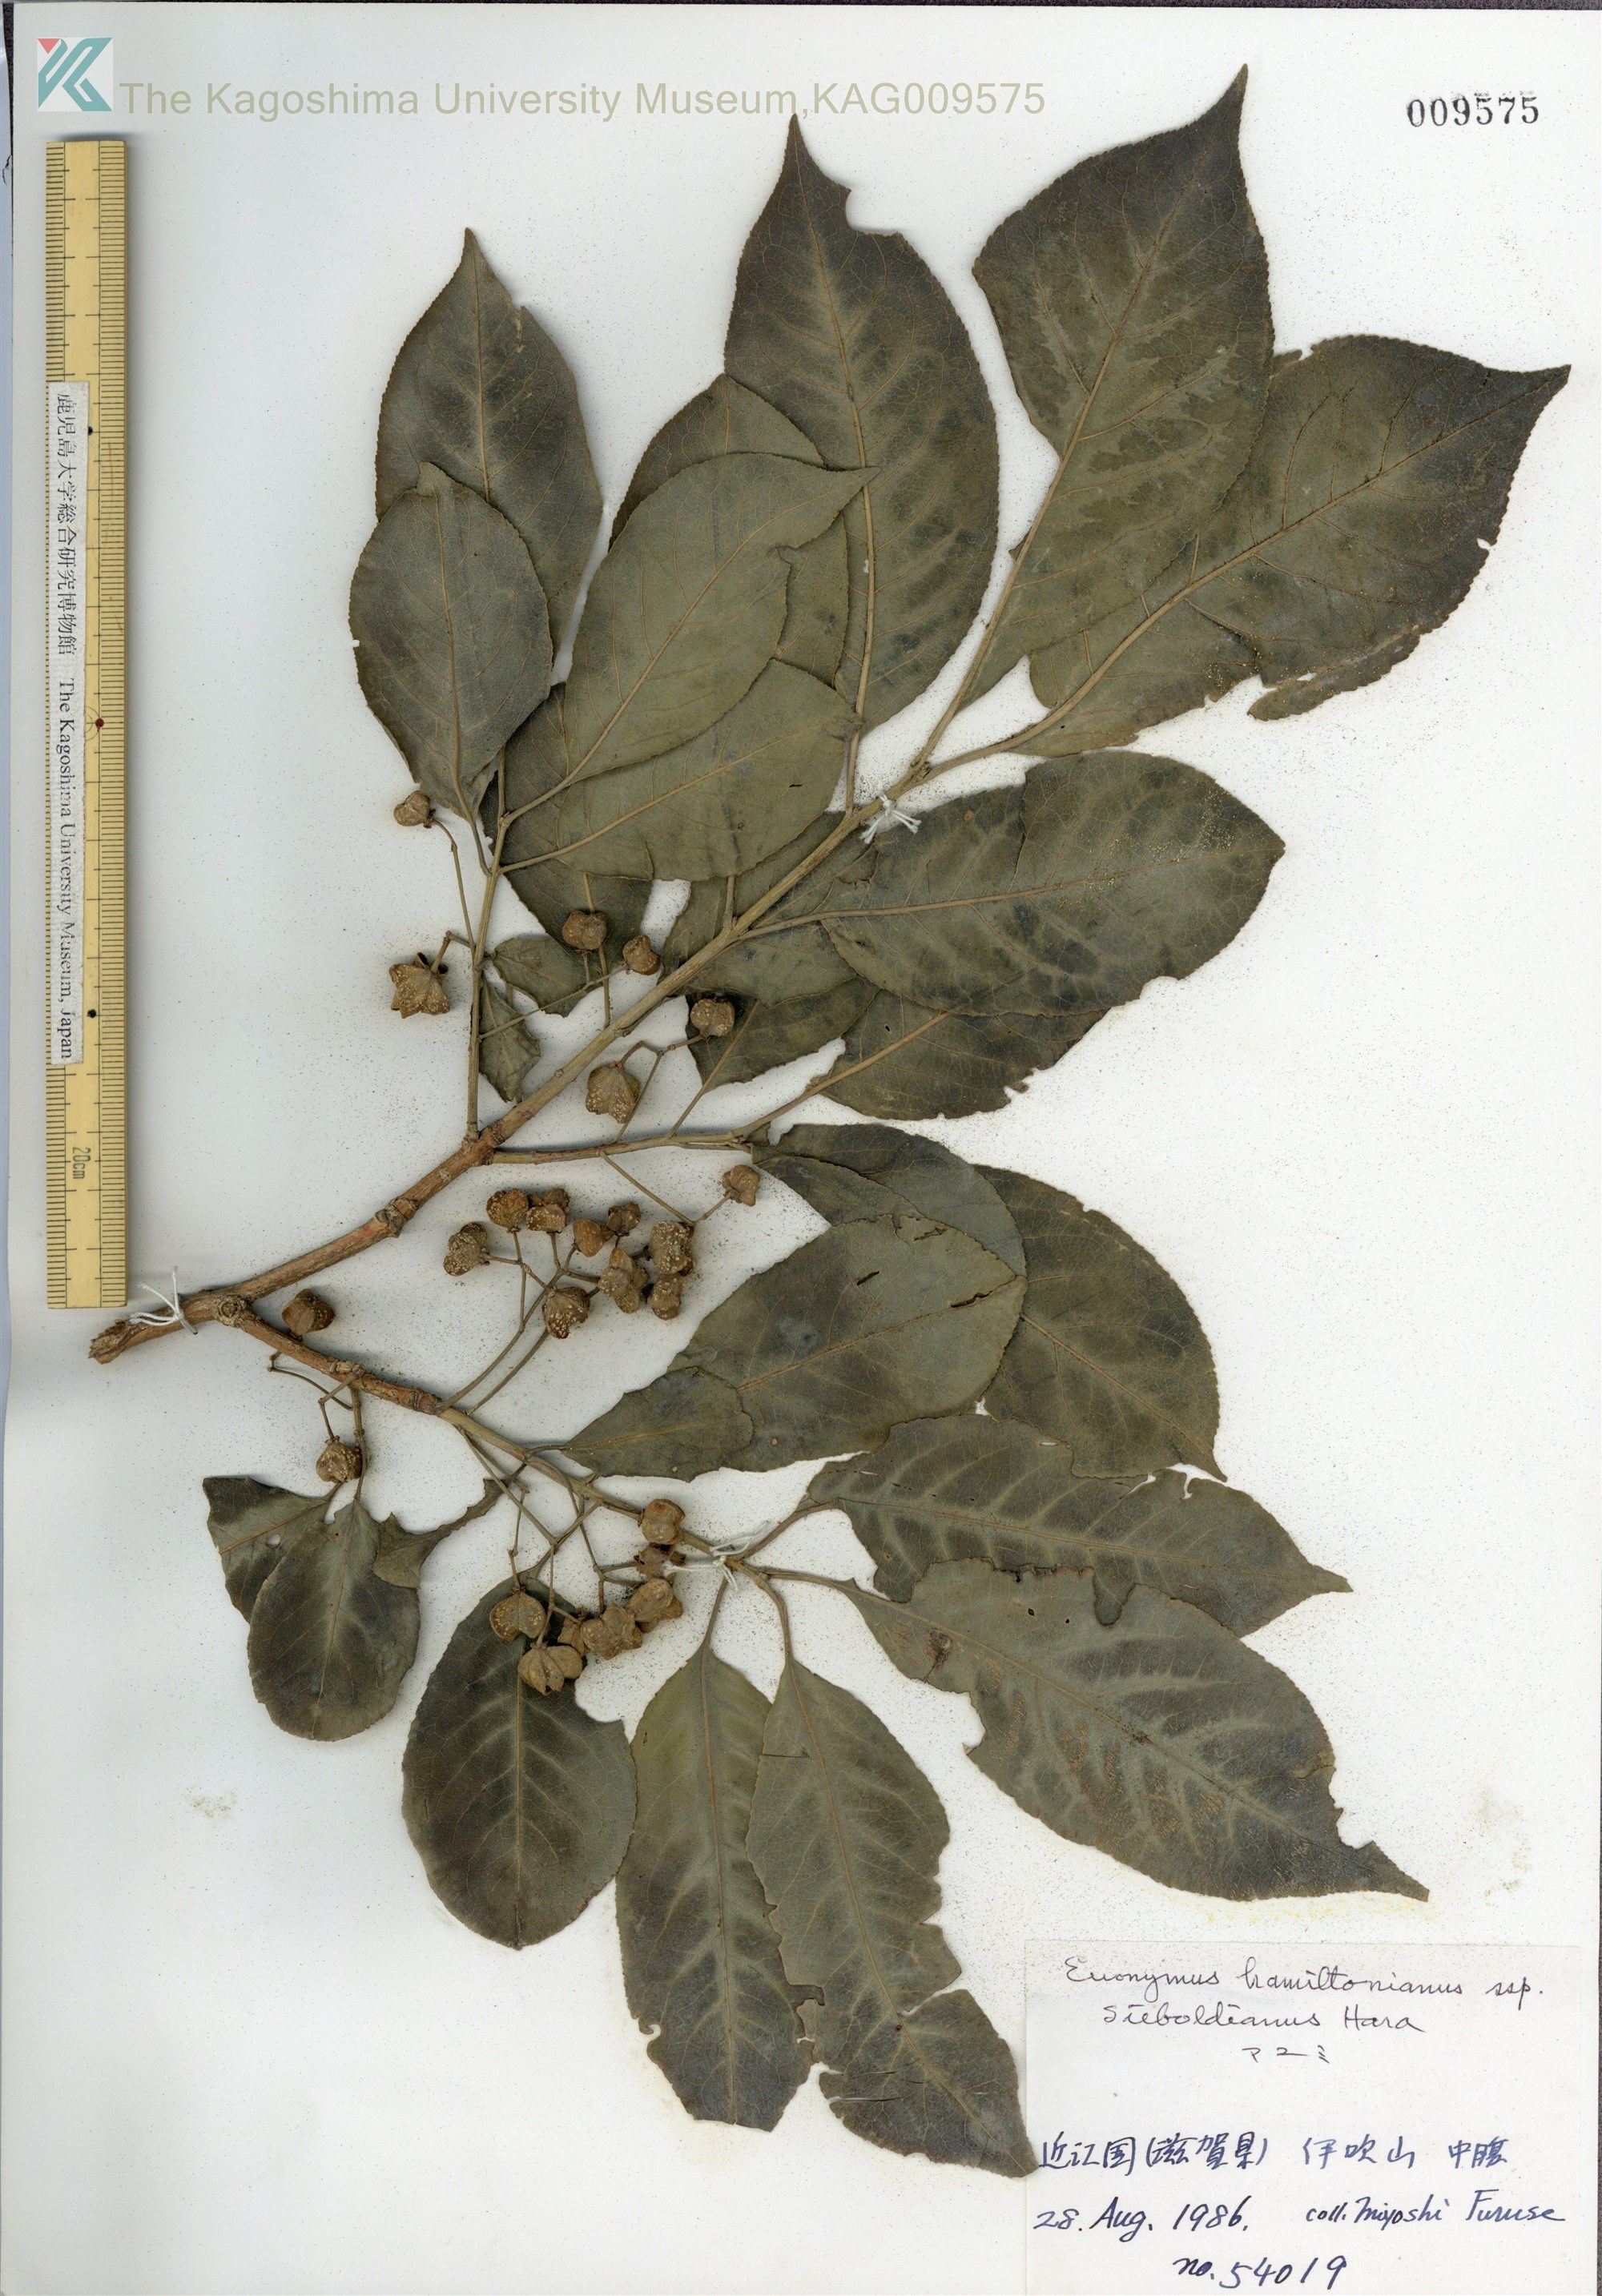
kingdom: Plantae
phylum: Tracheophyta
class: Magnoliopsida
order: Celastrales
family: Celastraceae
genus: Euonymus
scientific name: Euonymus hamiltonianus
